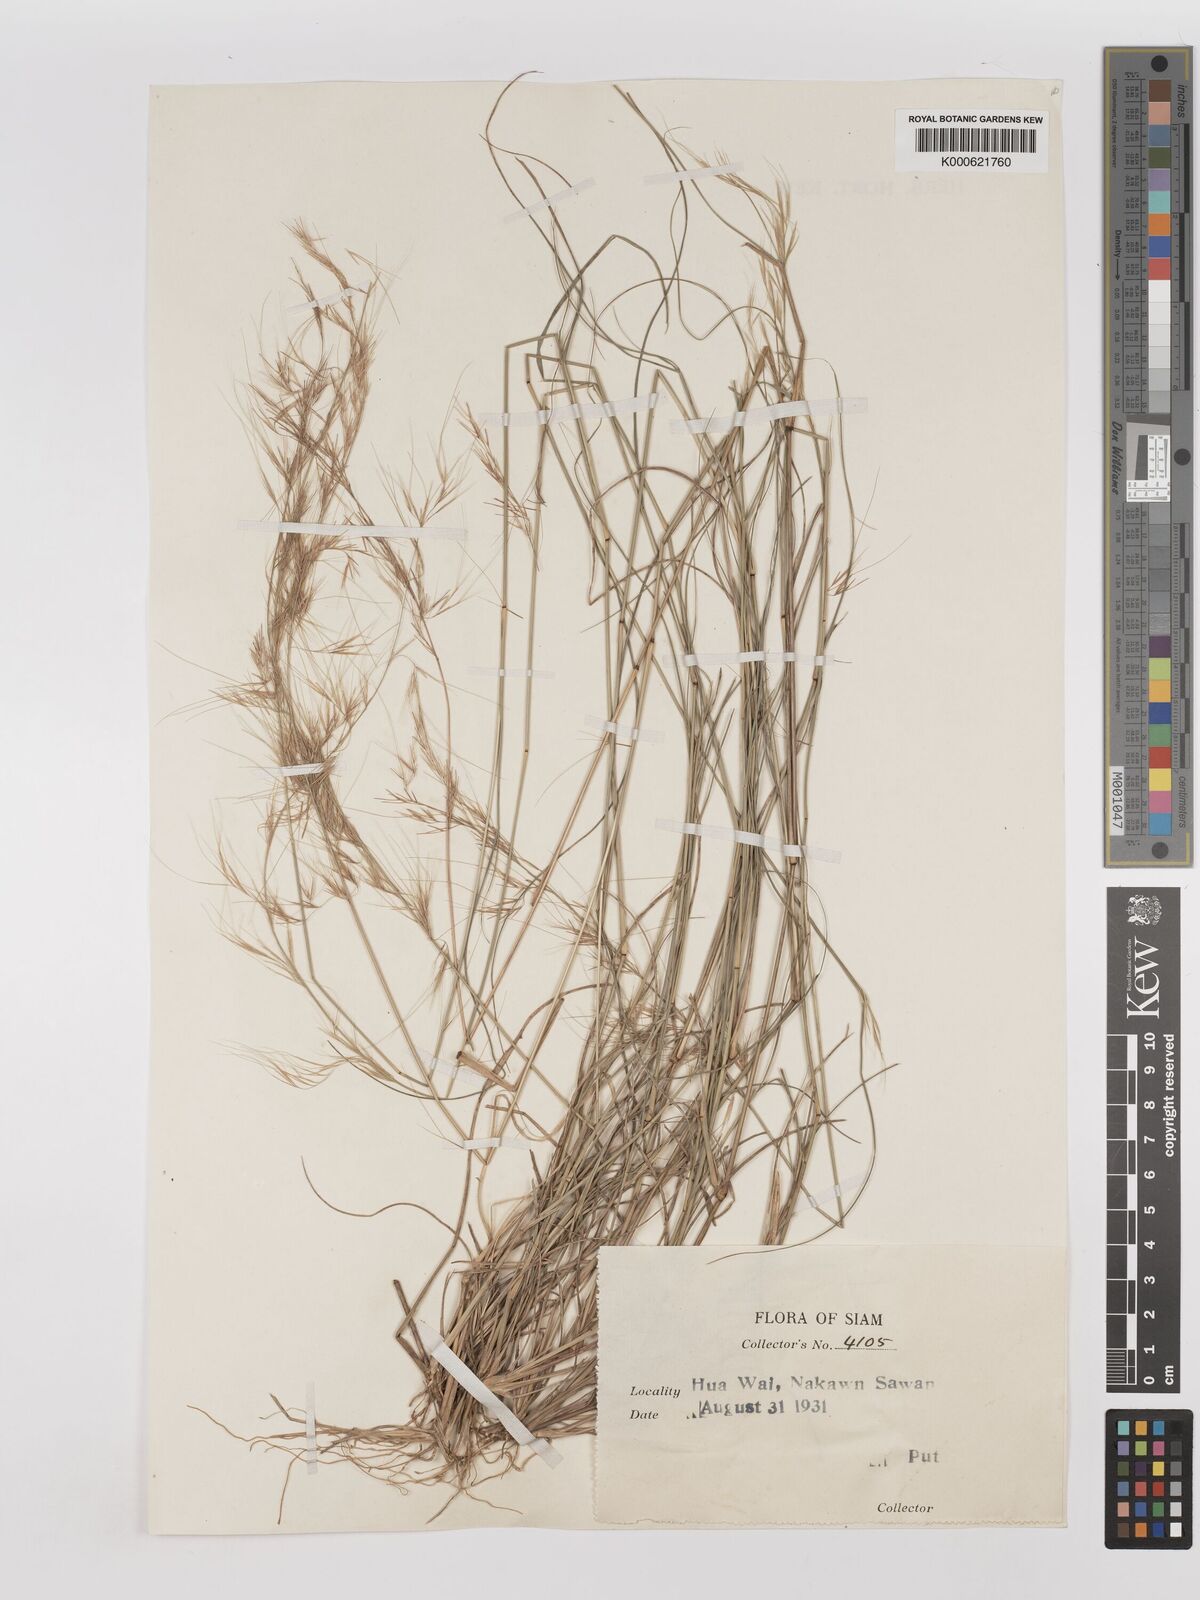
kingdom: Plantae
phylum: Tracheophyta
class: Liliopsida
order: Poales
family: Poaceae
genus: Aristida
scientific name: Aristida
